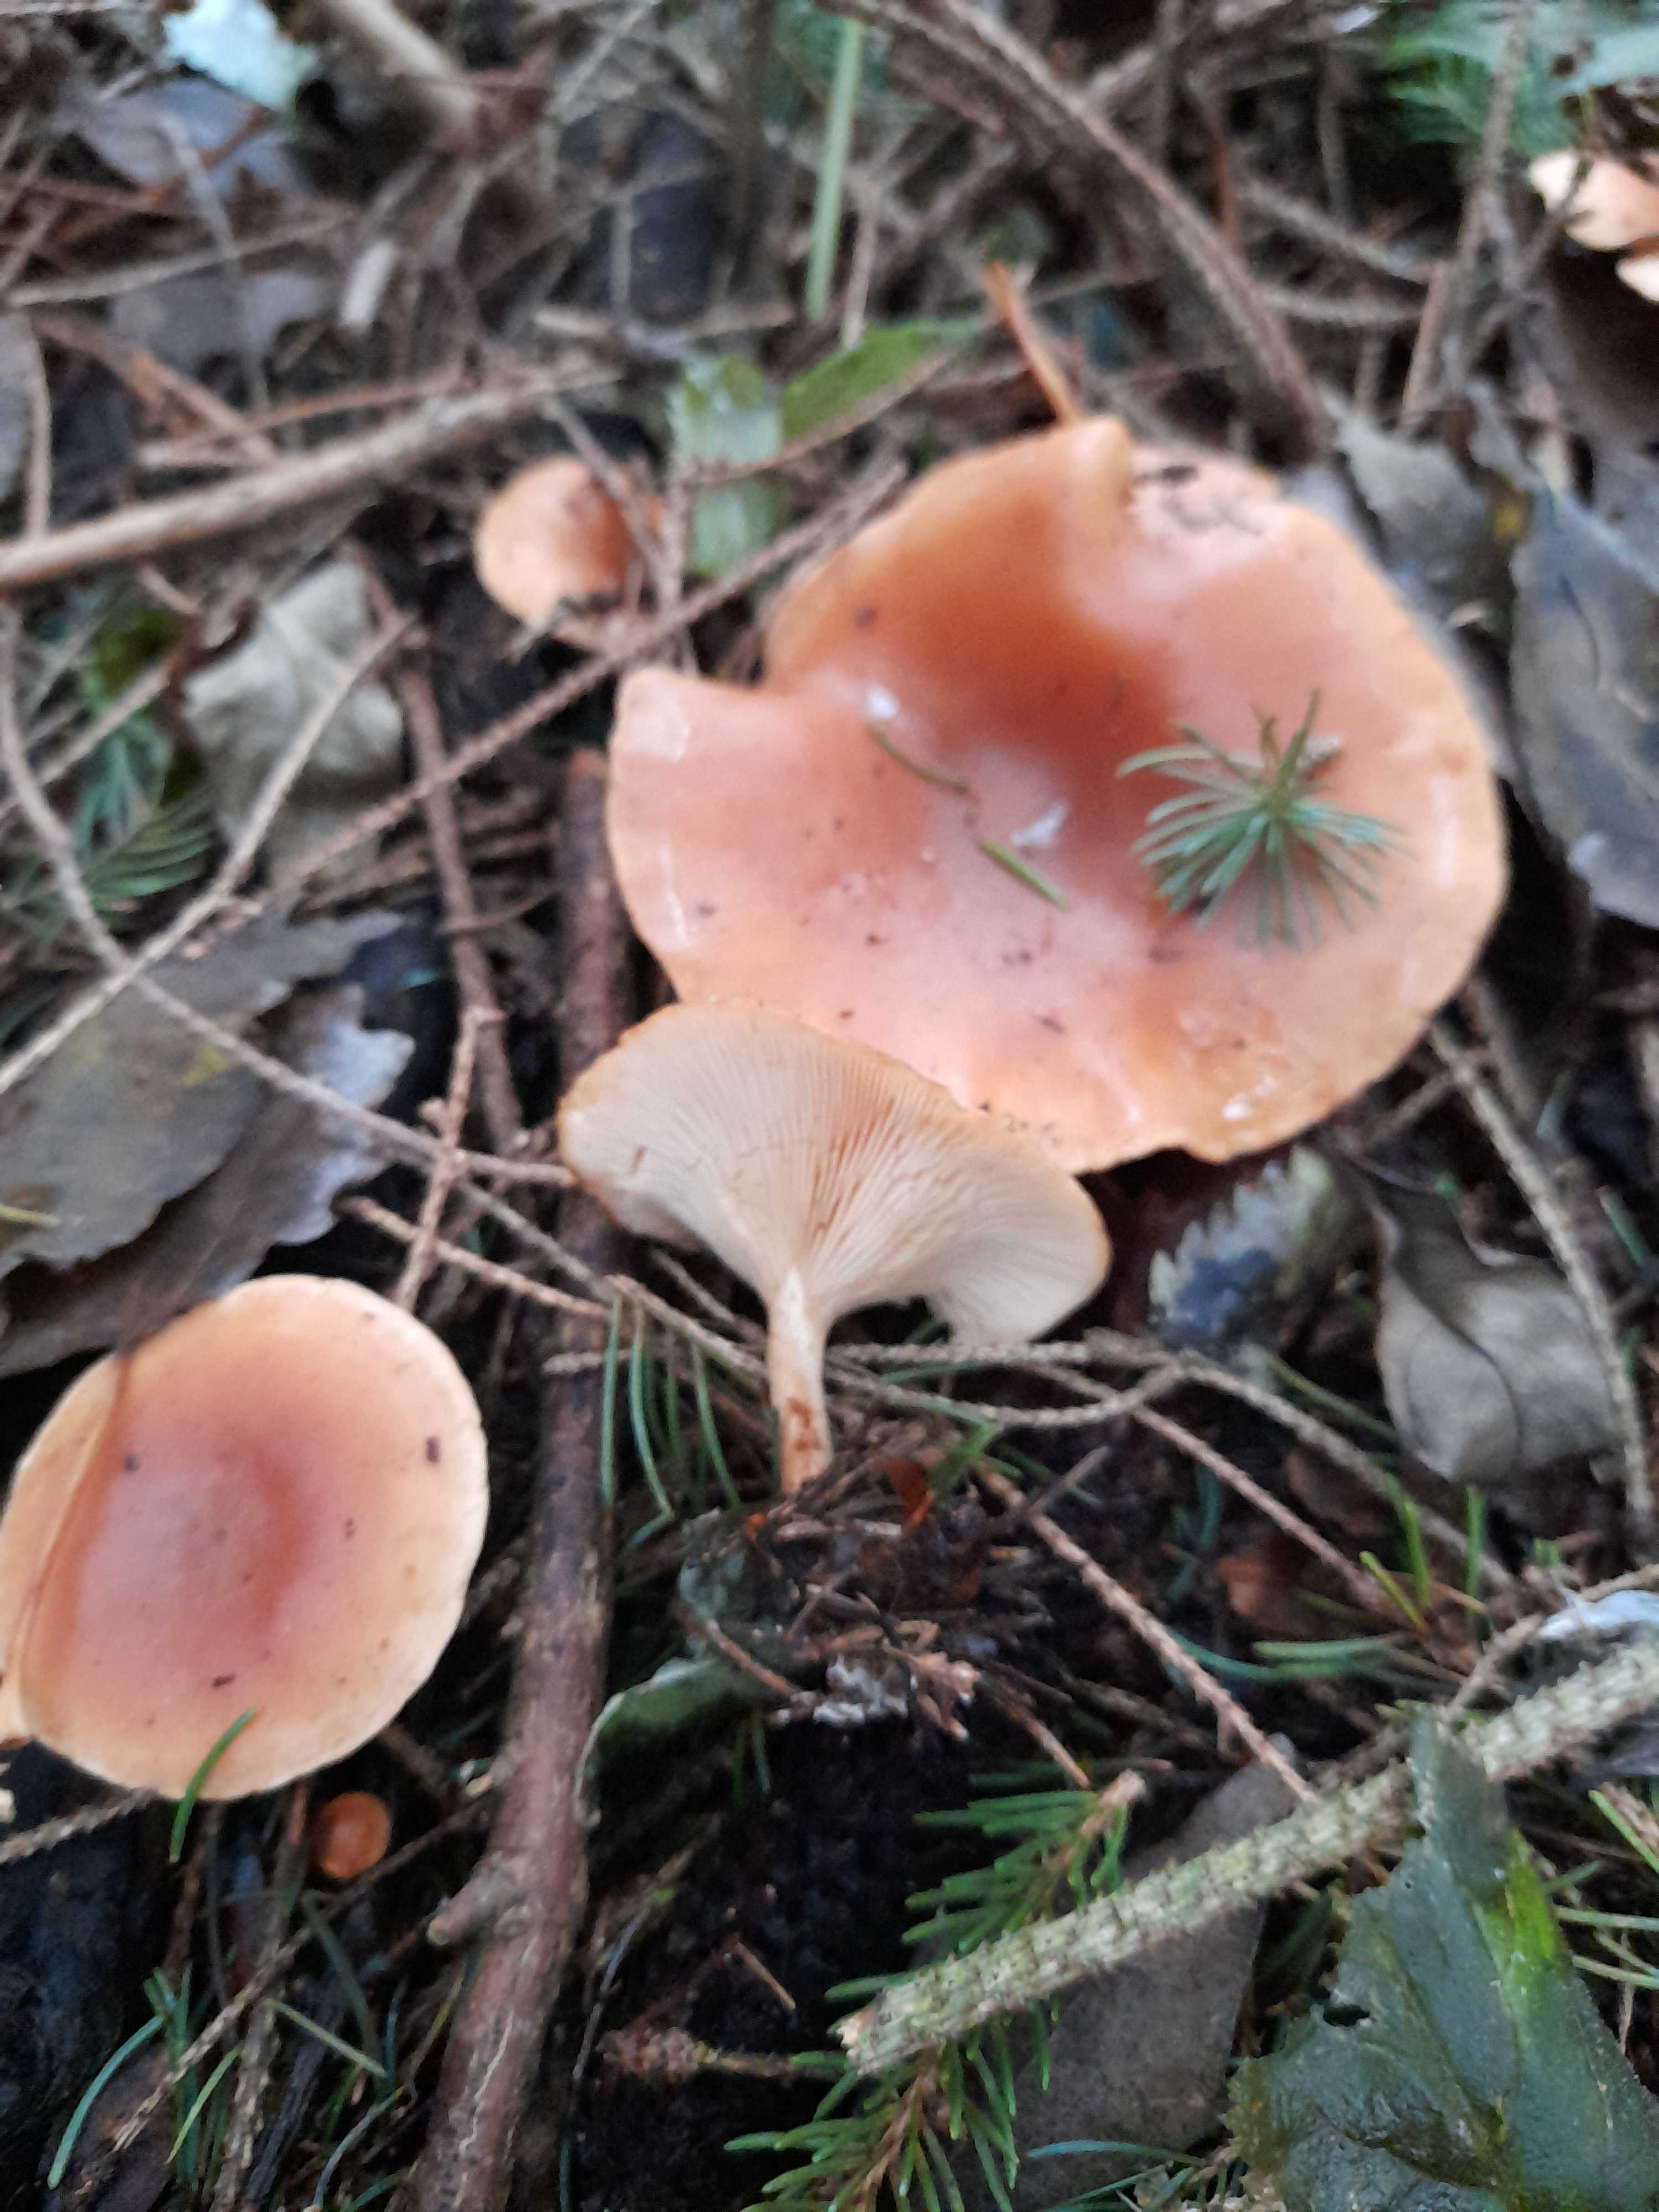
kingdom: Fungi
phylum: Basidiomycota
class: Agaricomycetes
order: Agaricales
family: Tricholomataceae
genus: Paralepista
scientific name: Paralepista flaccida
